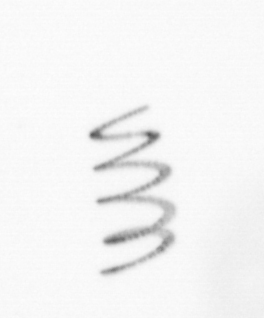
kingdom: Chromista
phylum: Ochrophyta
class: Bacillariophyceae
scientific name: Bacillariophyceae
